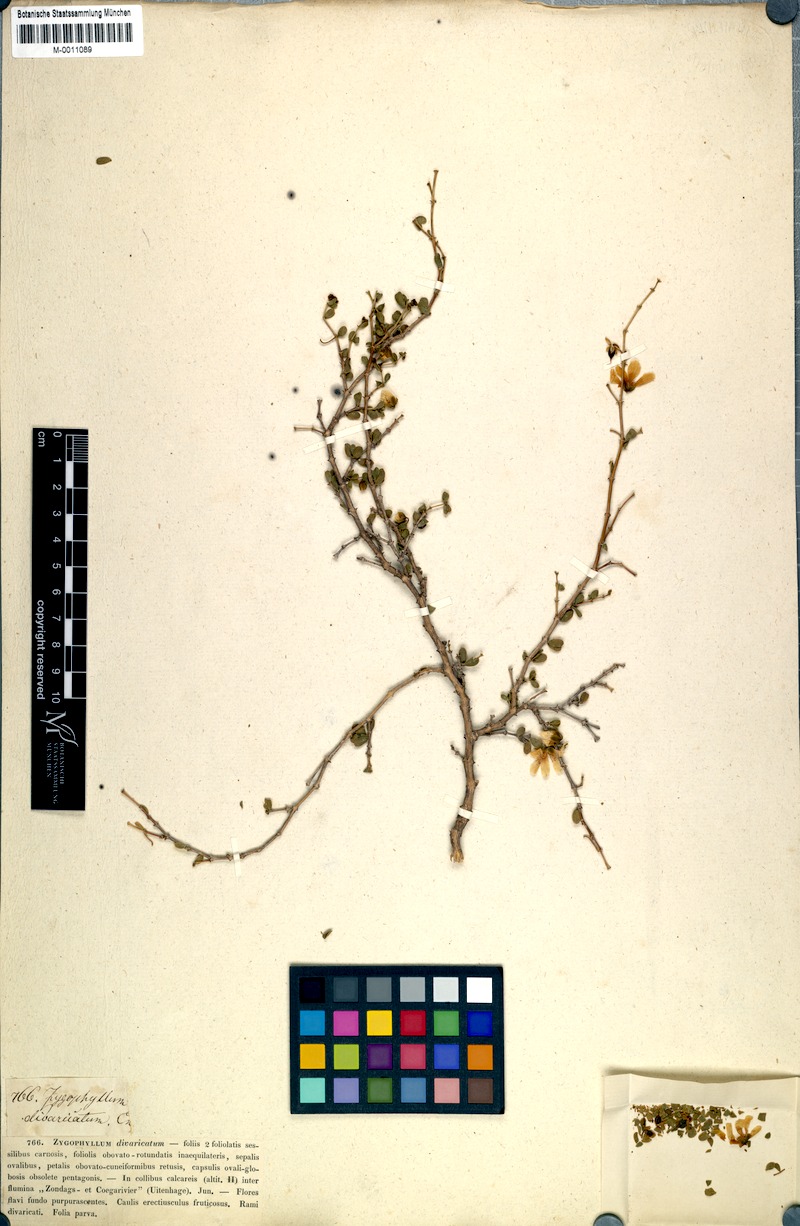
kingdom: Plantae
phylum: Tracheophyta
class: Magnoliopsida
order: Zygophyllales
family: Zygophyllaceae
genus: Roepera
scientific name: Roepera divaricata
